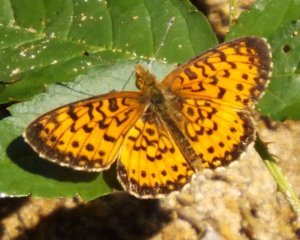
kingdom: Animalia
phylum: Arthropoda
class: Insecta
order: Lepidoptera
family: Nymphalidae
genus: Boloria
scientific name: Boloria selene
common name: Silver-bordered Fritillary
